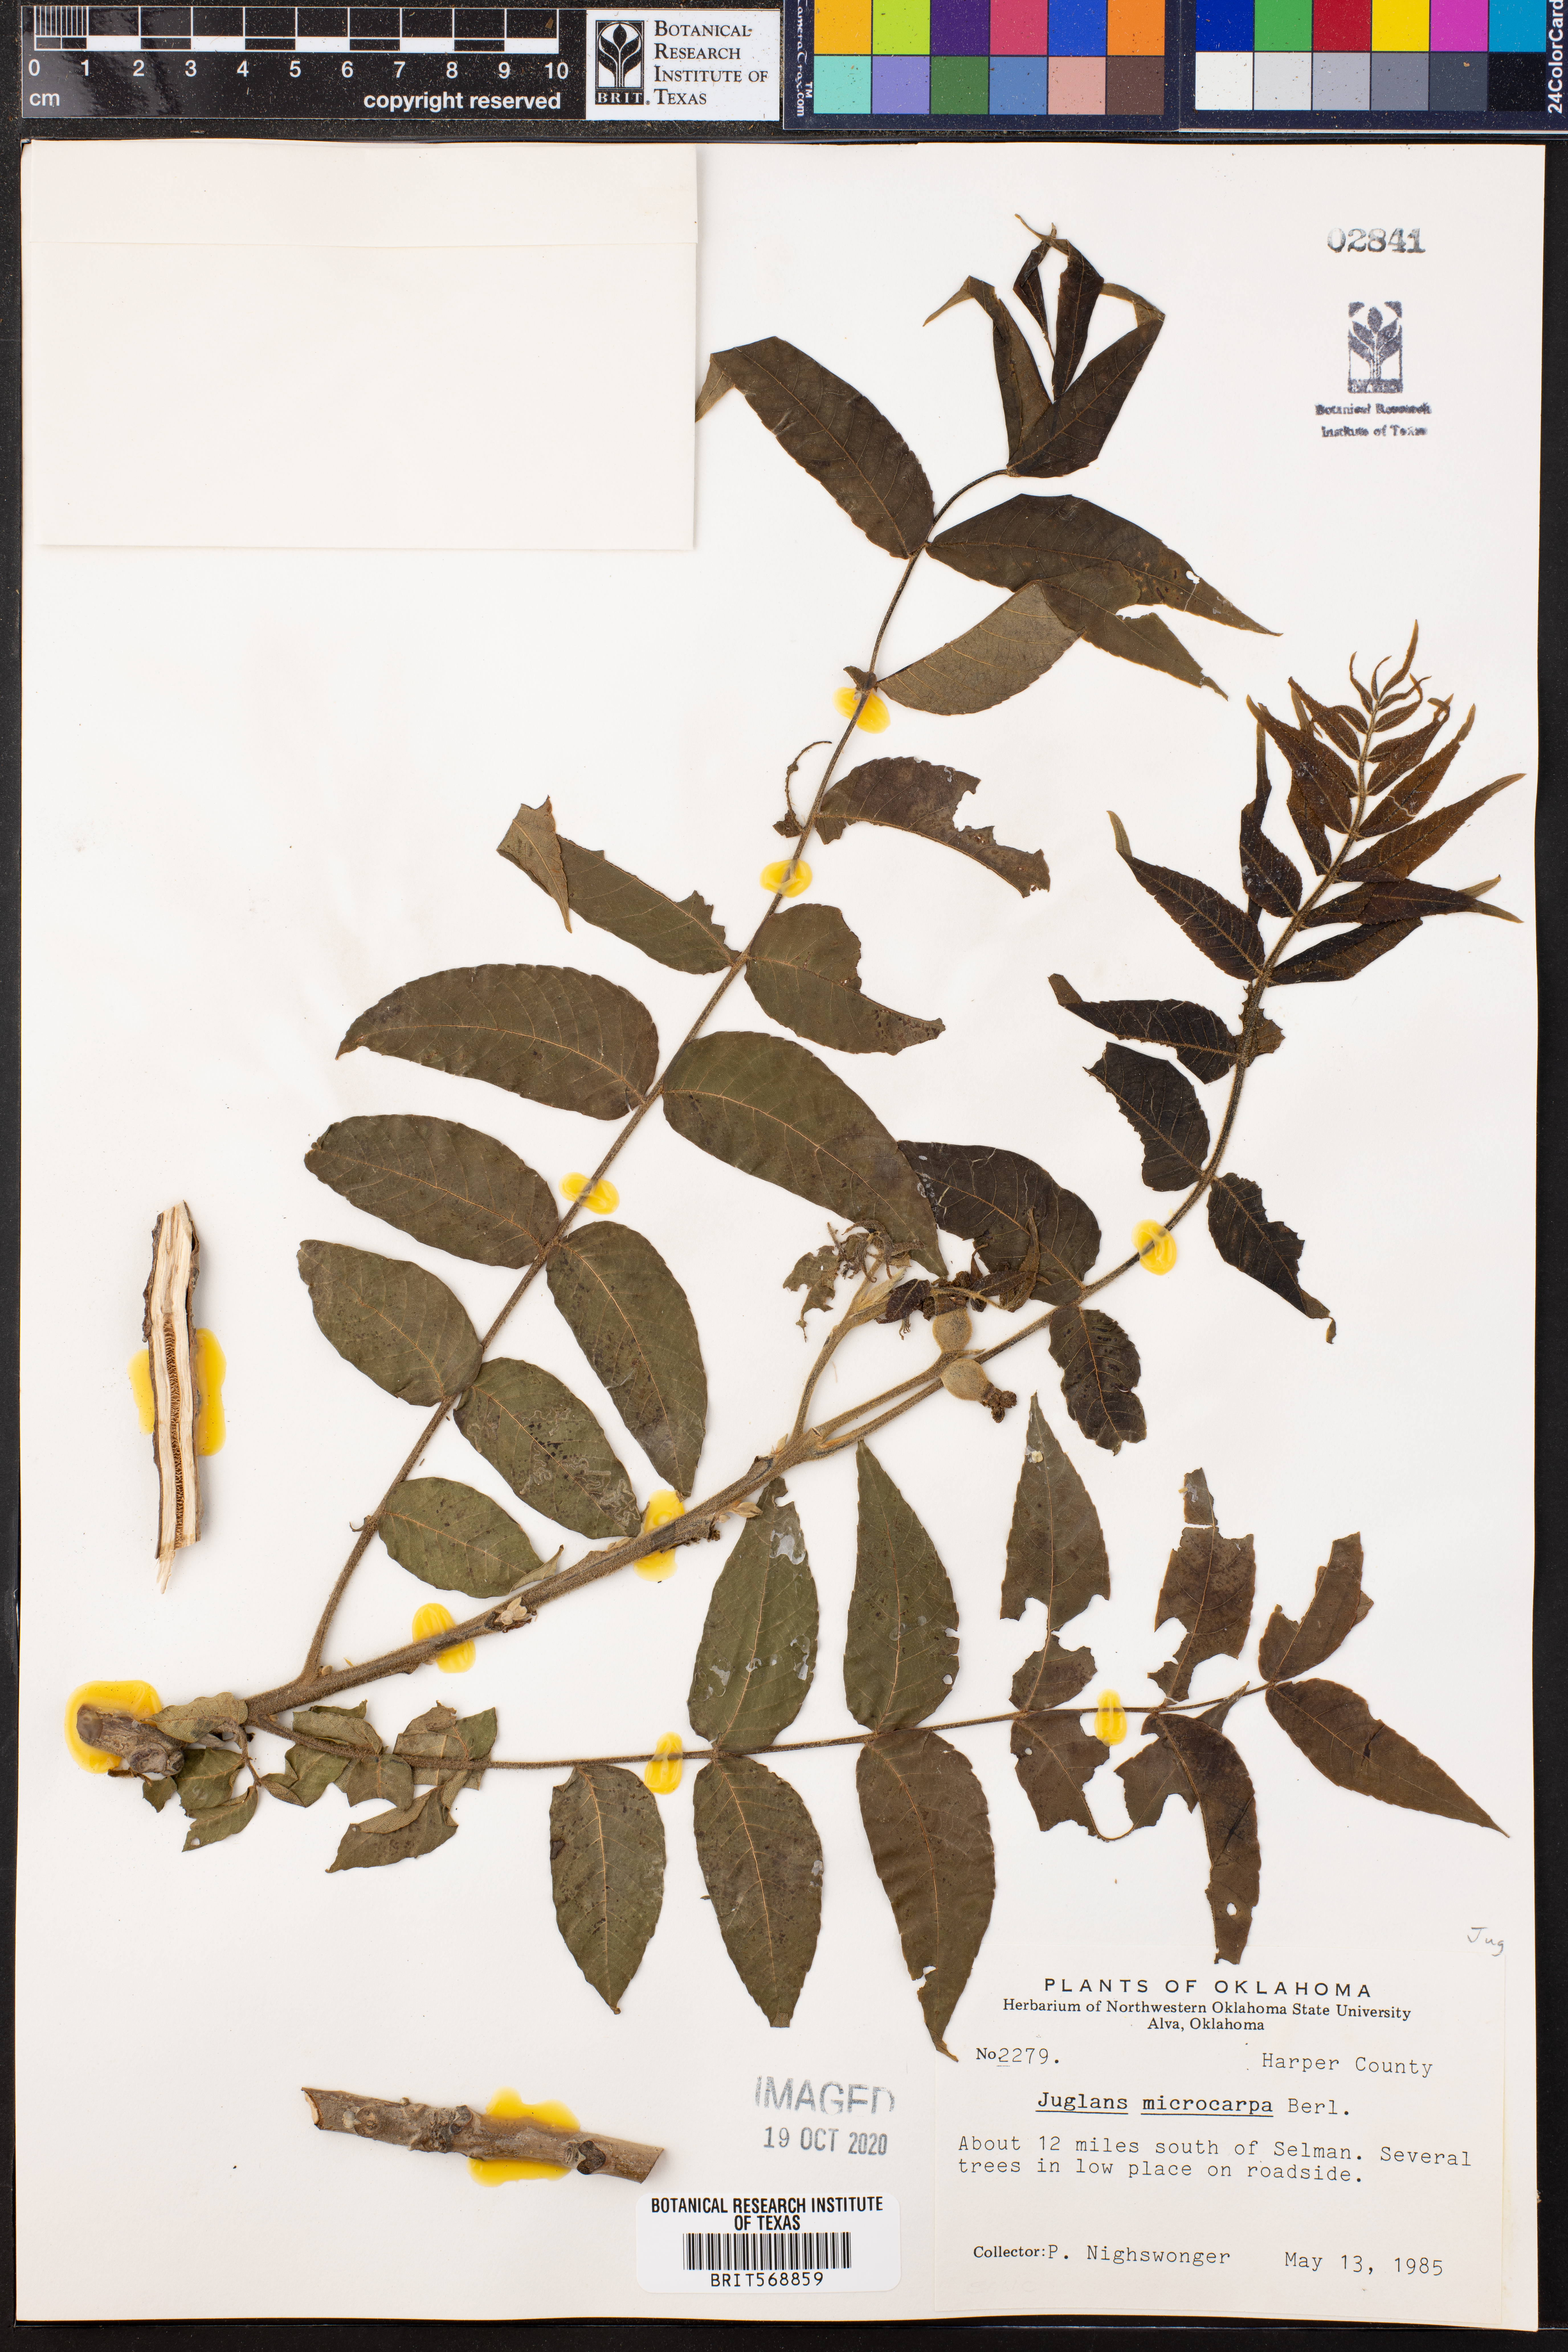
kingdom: Plantae
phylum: Tracheophyta
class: Magnoliopsida
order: Fagales
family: Juglandaceae
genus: Juglans
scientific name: Juglans microcarpa
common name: Texas walnut
